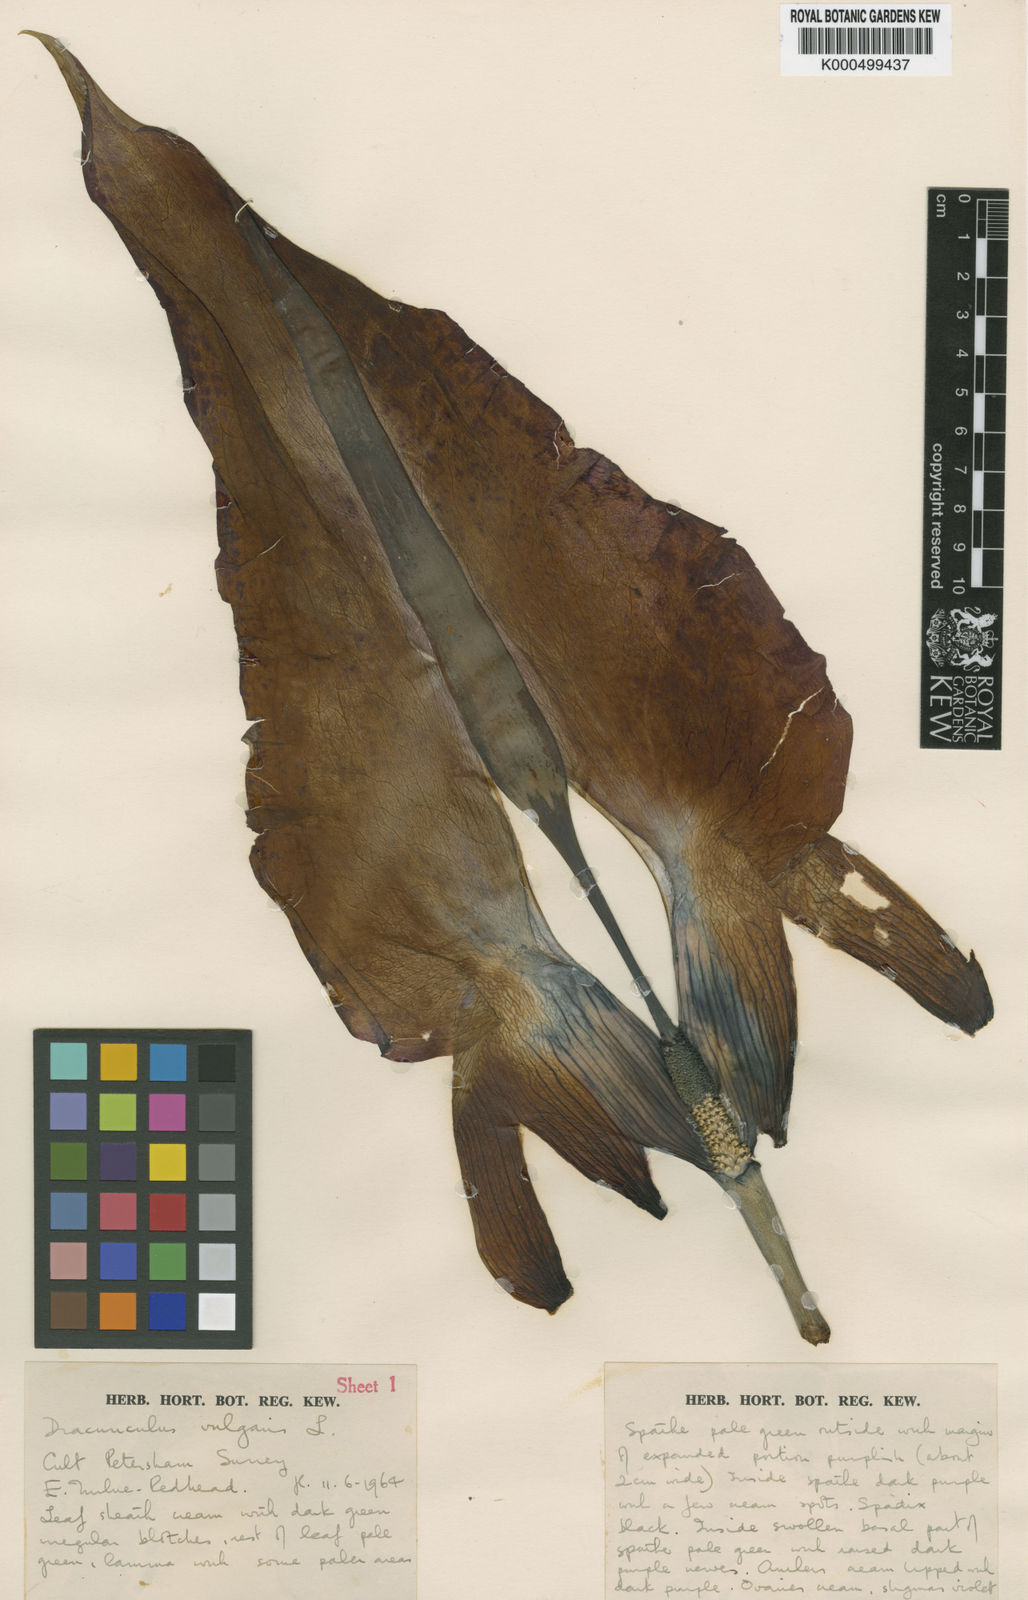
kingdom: Plantae
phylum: Tracheophyta
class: Liliopsida
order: Alismatales
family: Araceae
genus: Dracunculus
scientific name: Dracunculus
